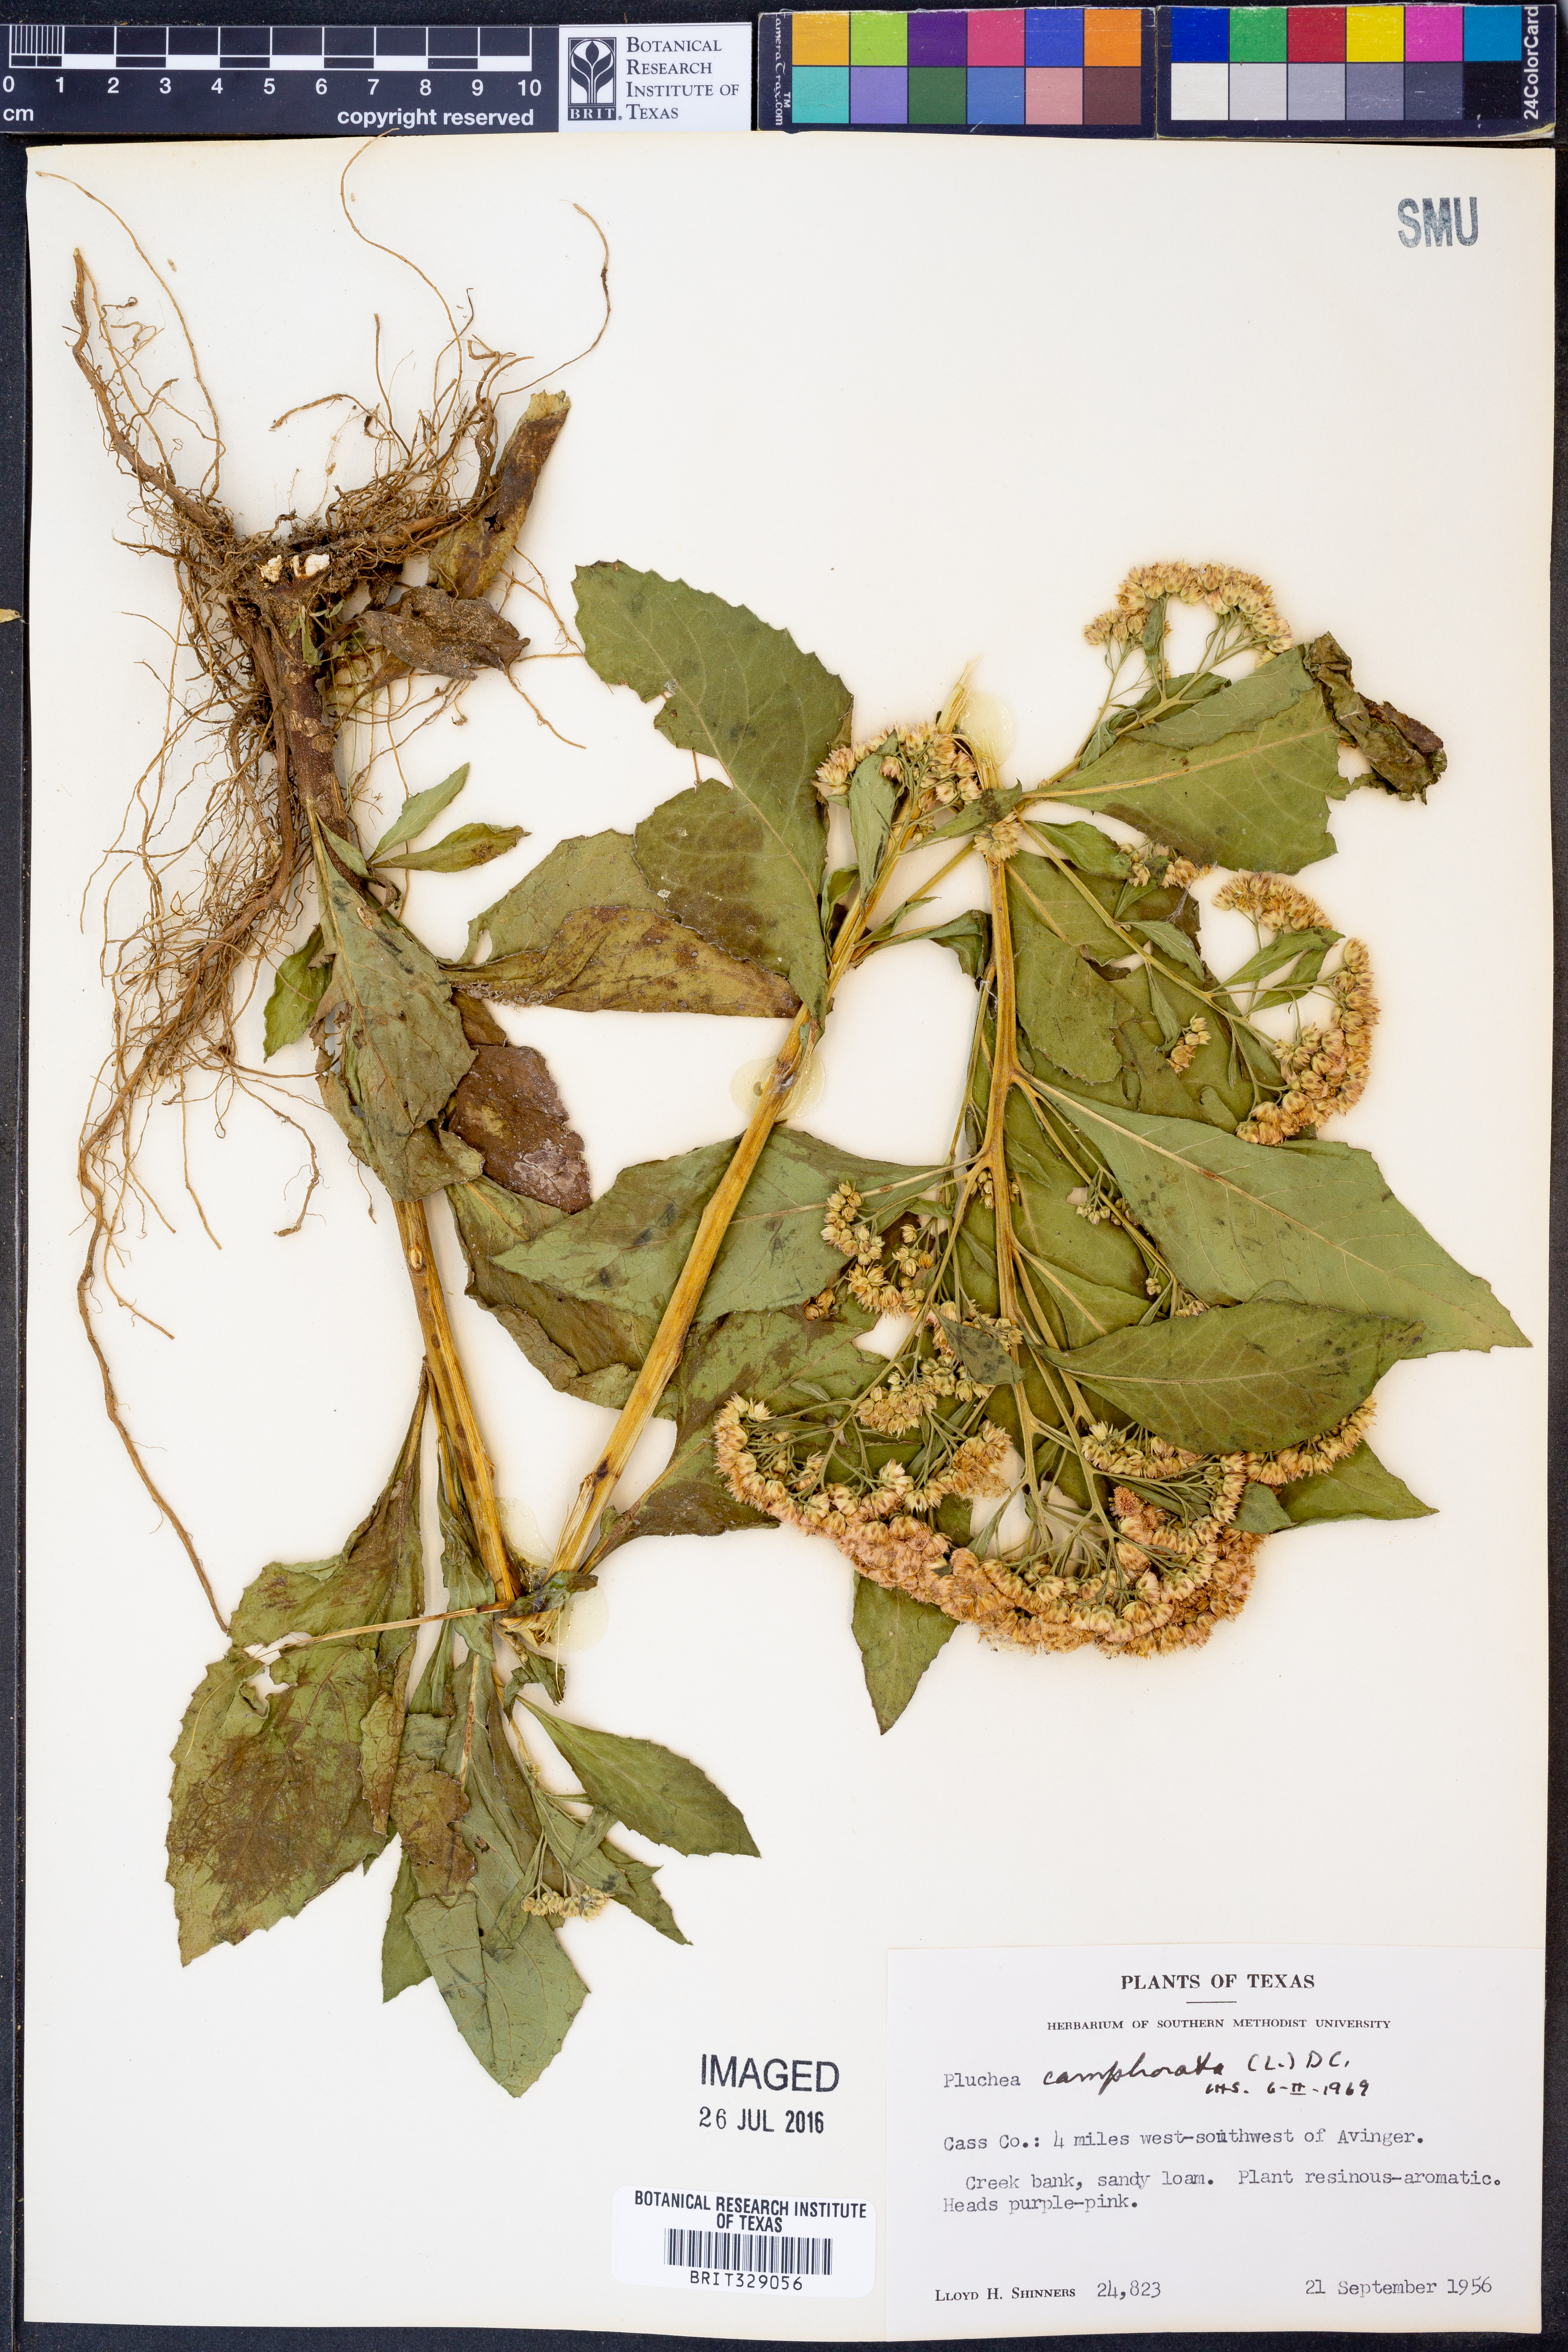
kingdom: Plantae
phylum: Tracheophyta
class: Magnoliopsida
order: Asterales
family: Asteraceae
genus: Pluchea
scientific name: Pluchea camphorata
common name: Camphor pluchea
